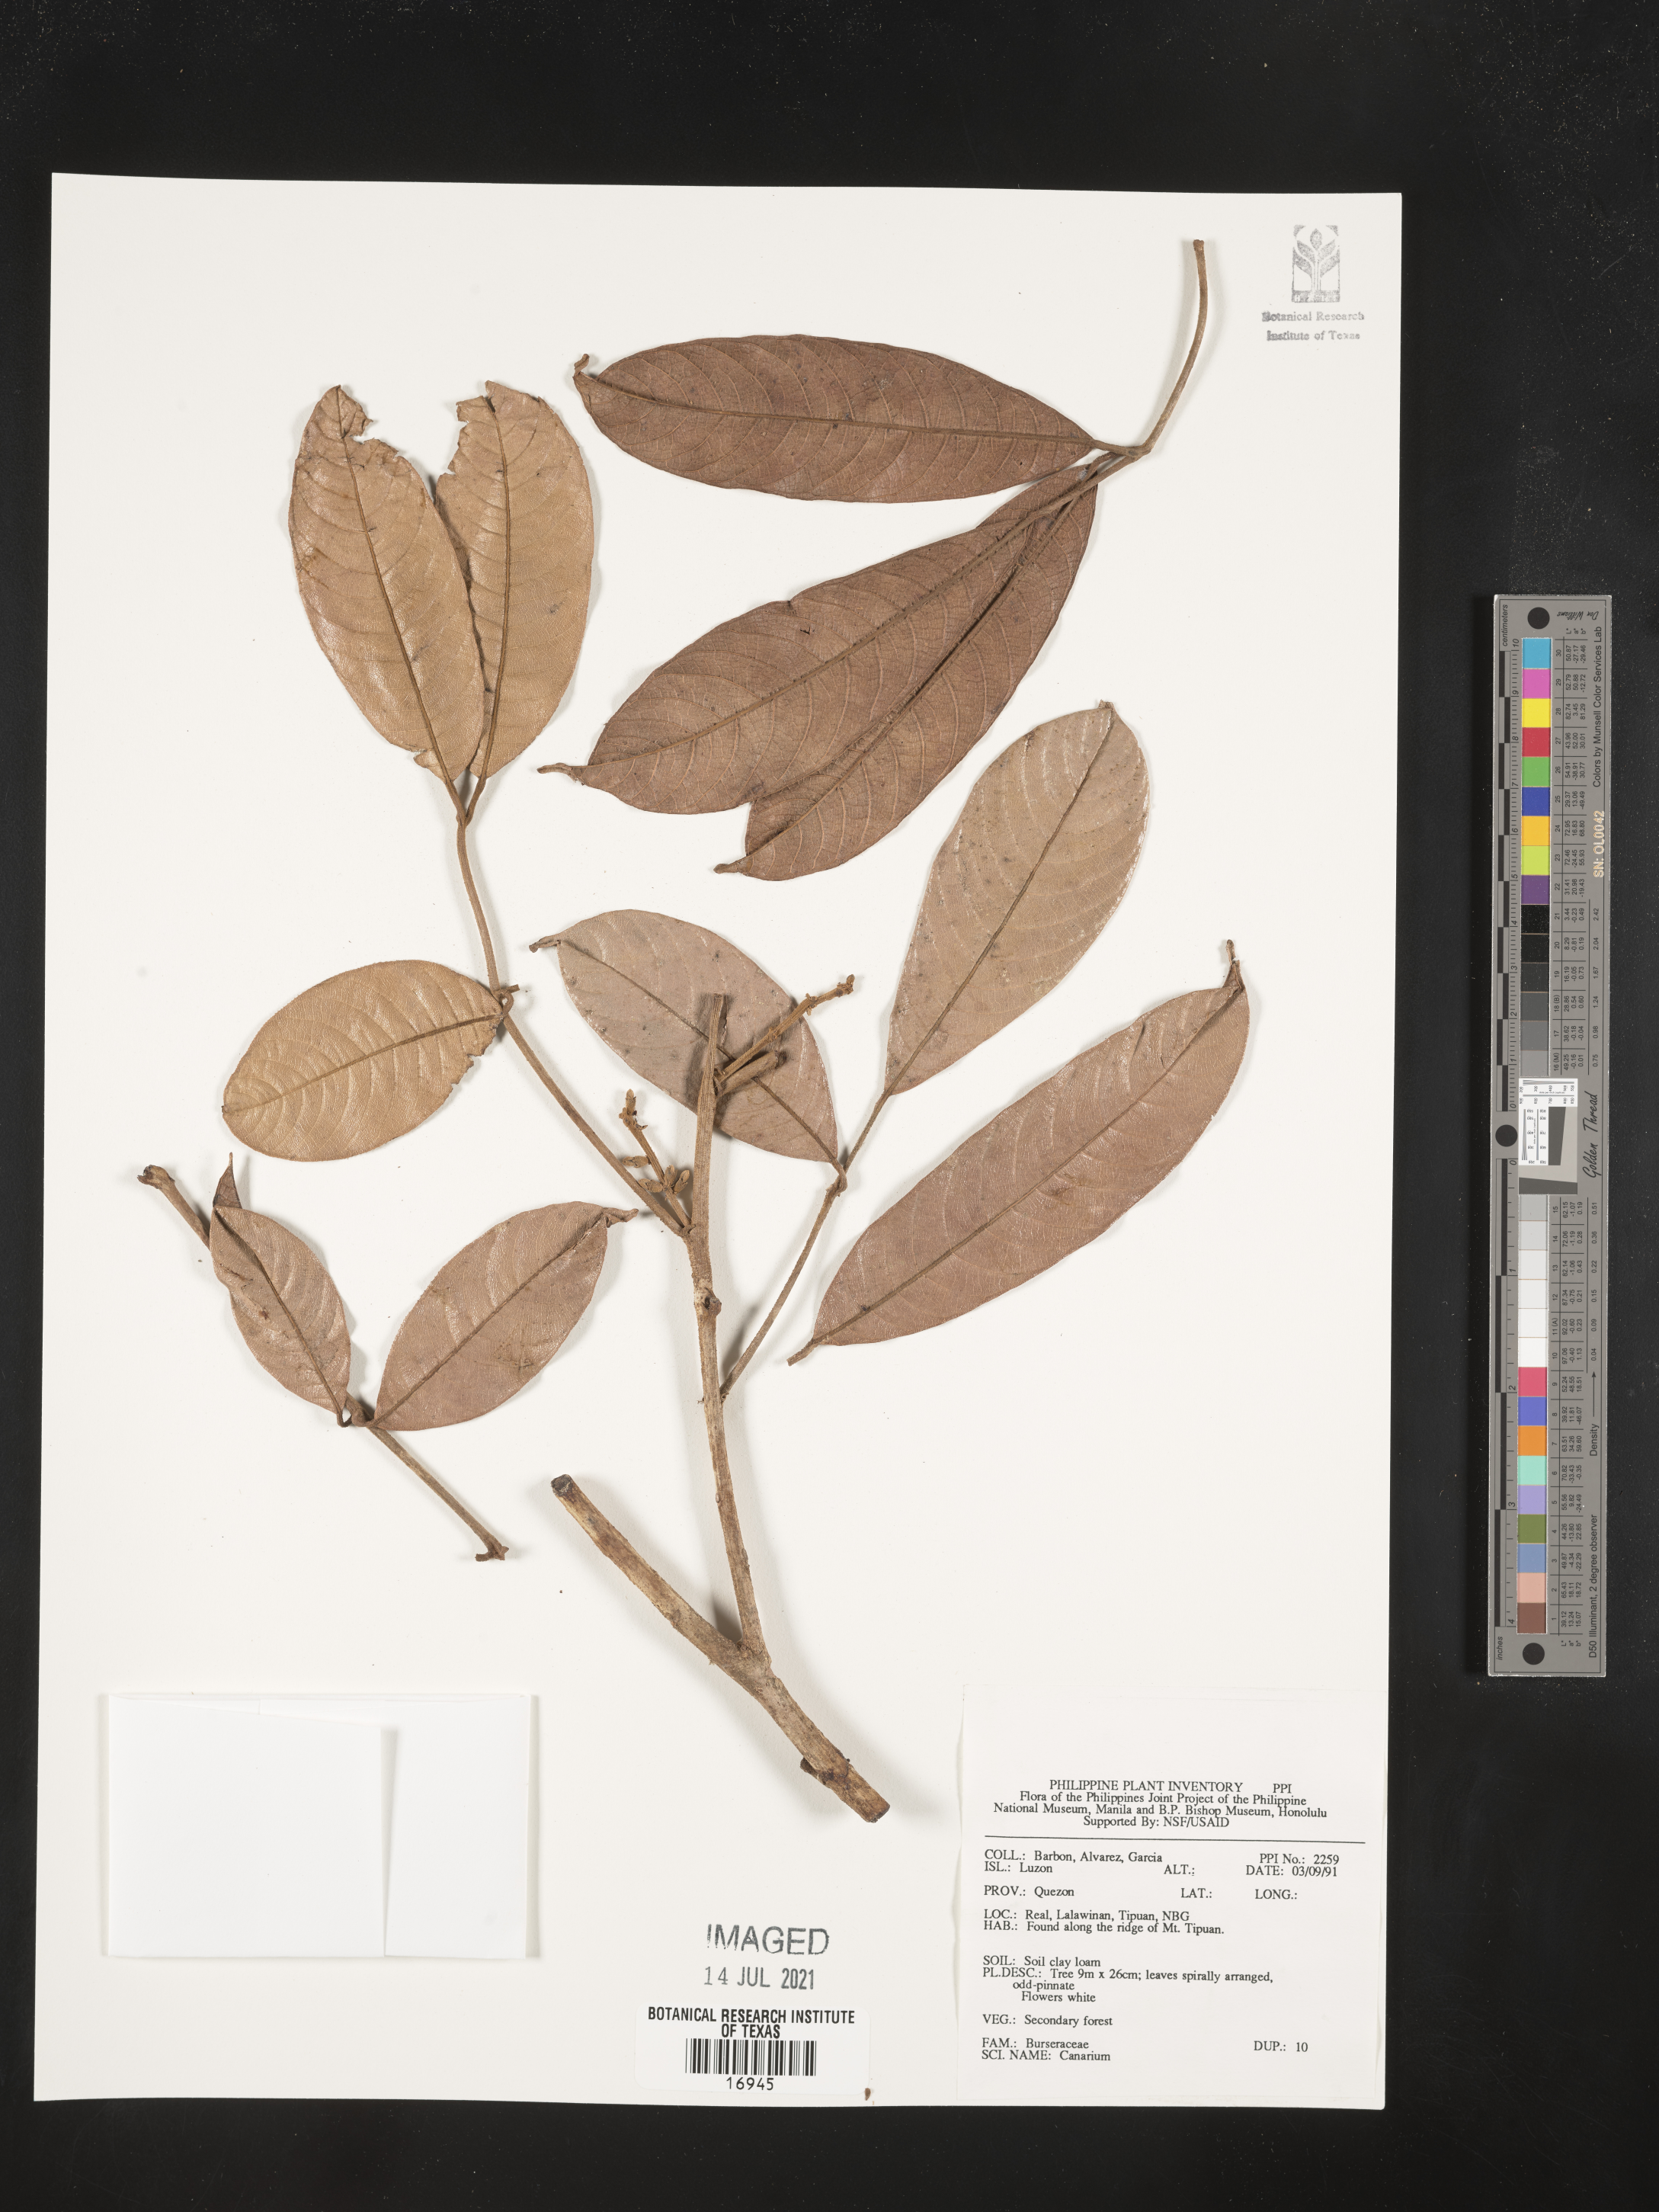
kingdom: Plantae
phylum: Tracheophyta
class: Magnoliopsida
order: Sapindales
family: Burseraceae
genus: Canarium
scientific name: Canarium
